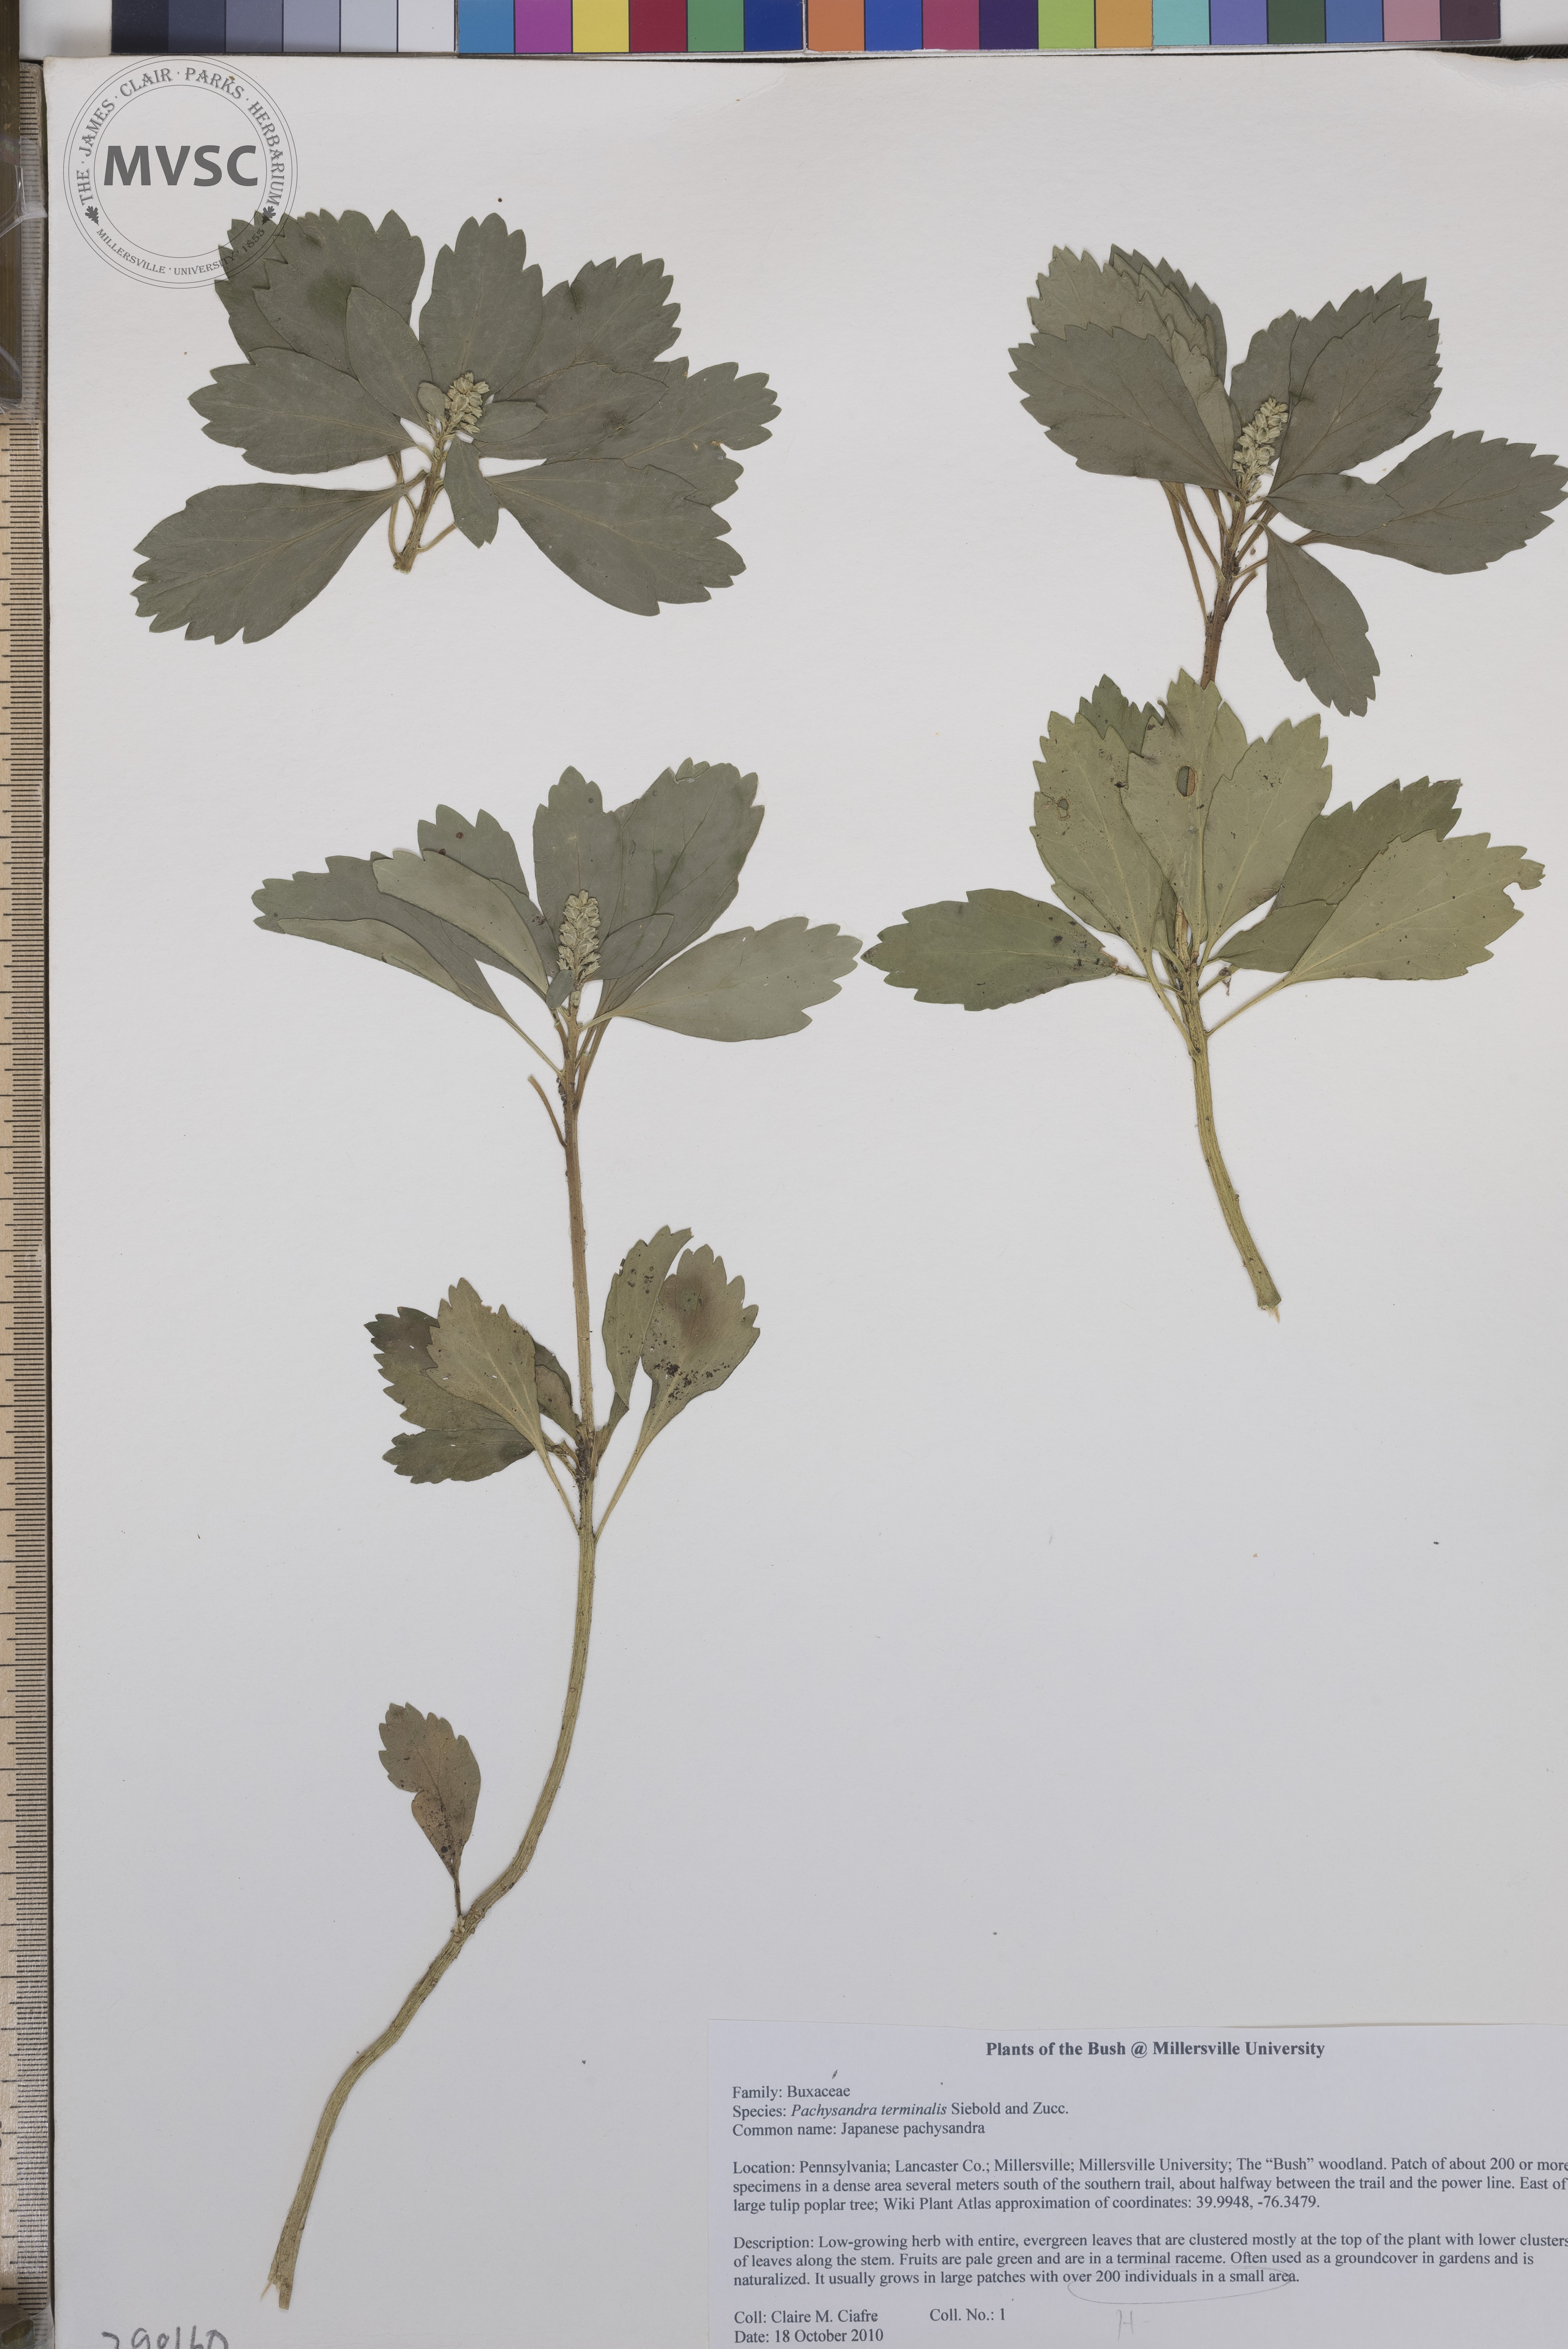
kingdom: Plantae
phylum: Tracheophyta
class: Magnoliopsida
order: Buxales
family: Buxaceae
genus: Pachysandra
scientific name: Pachysandra terminalis
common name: Japanese pachysandra
